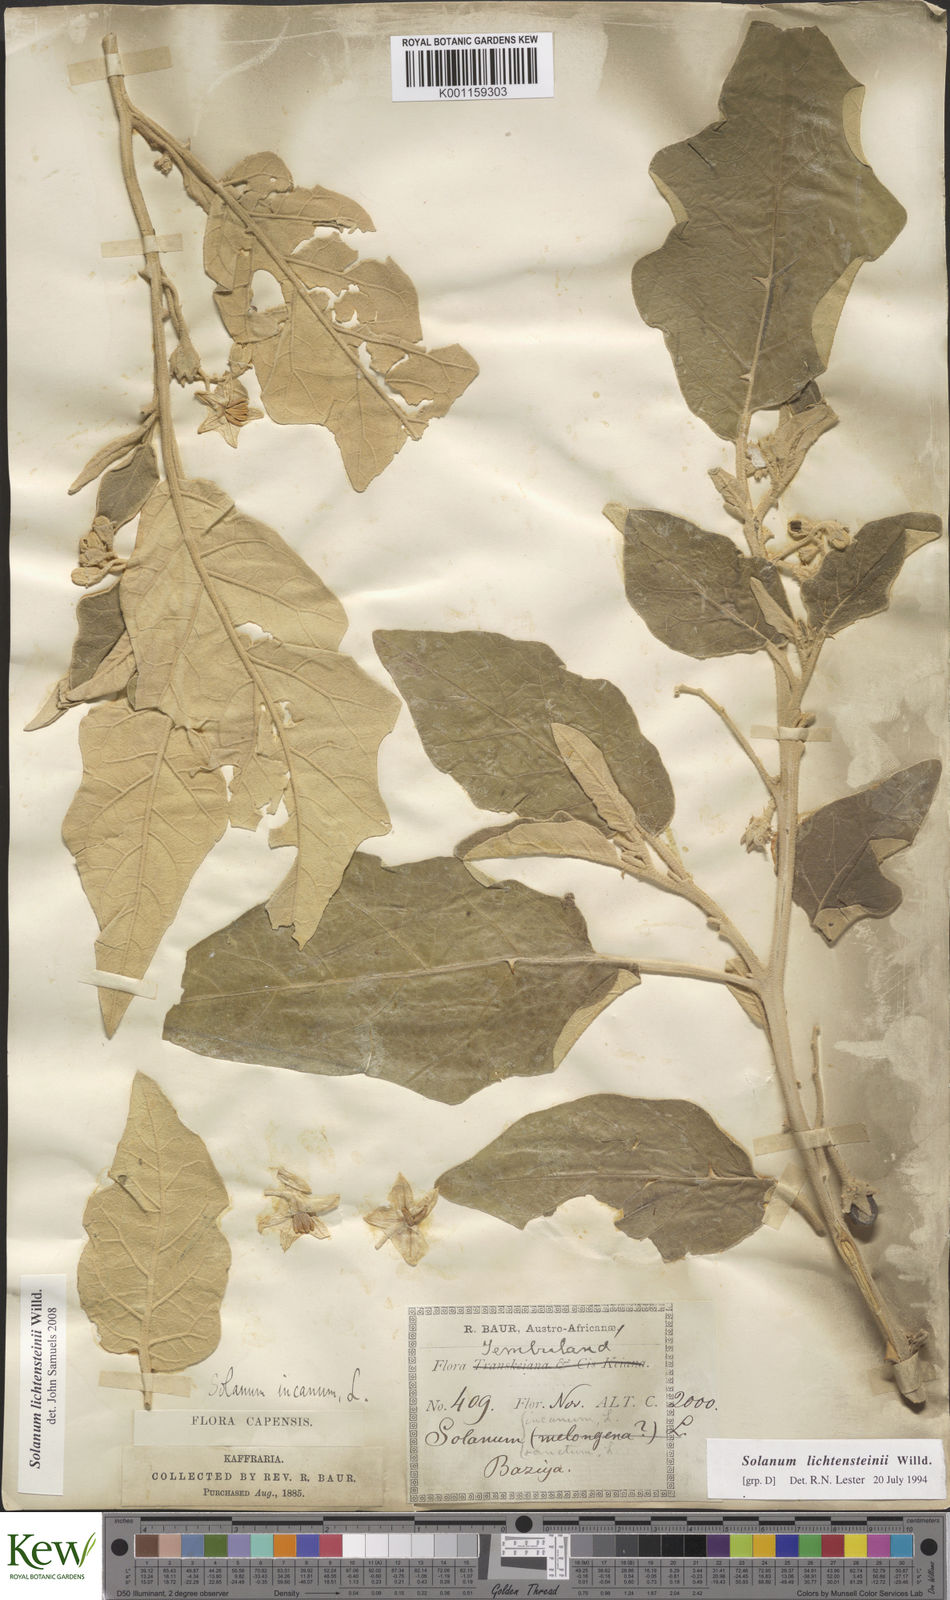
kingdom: Plantae
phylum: Tracheophyta
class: Magnoliopsida
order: Solanales
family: Solanaceae
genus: Solanum
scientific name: Solanum lichtensteinii
